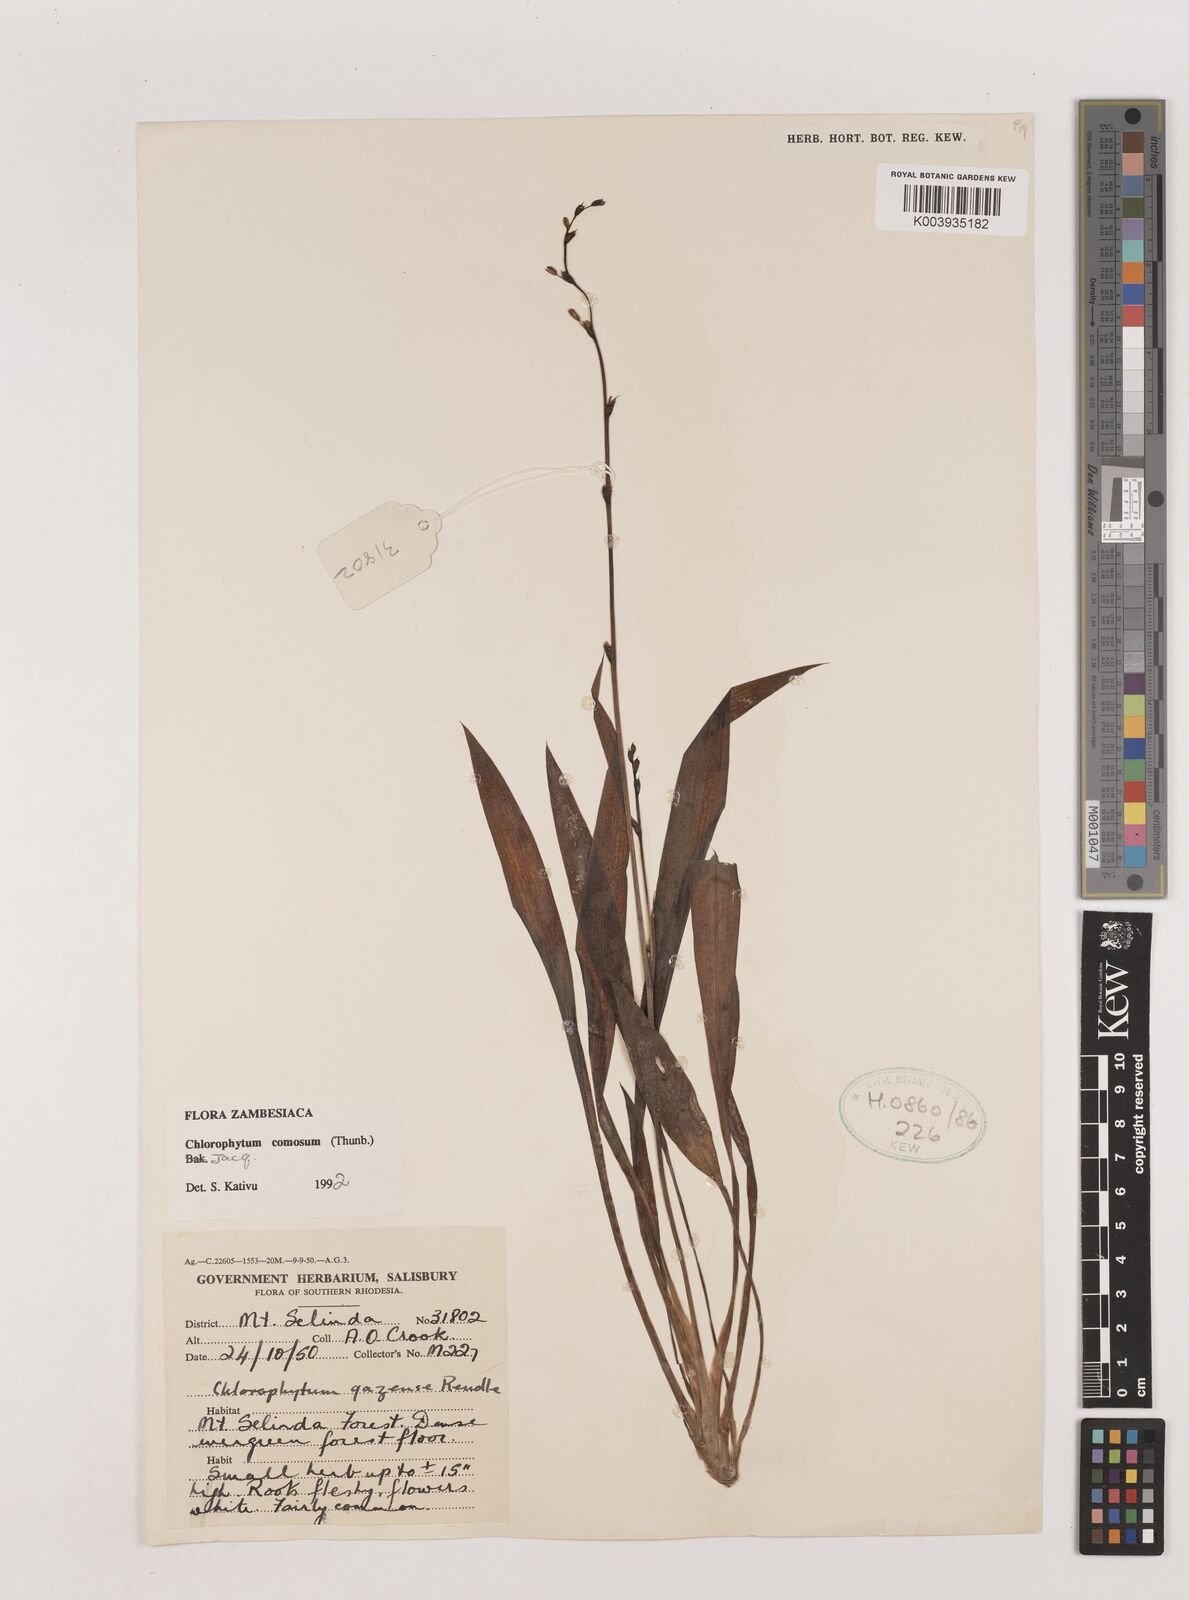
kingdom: Plantae
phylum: Tracheophyta
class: Liliopsida
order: Asparagales
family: Asparagaceae
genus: Chlorophytum
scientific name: Chlorophytum comosum
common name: Spider plant
